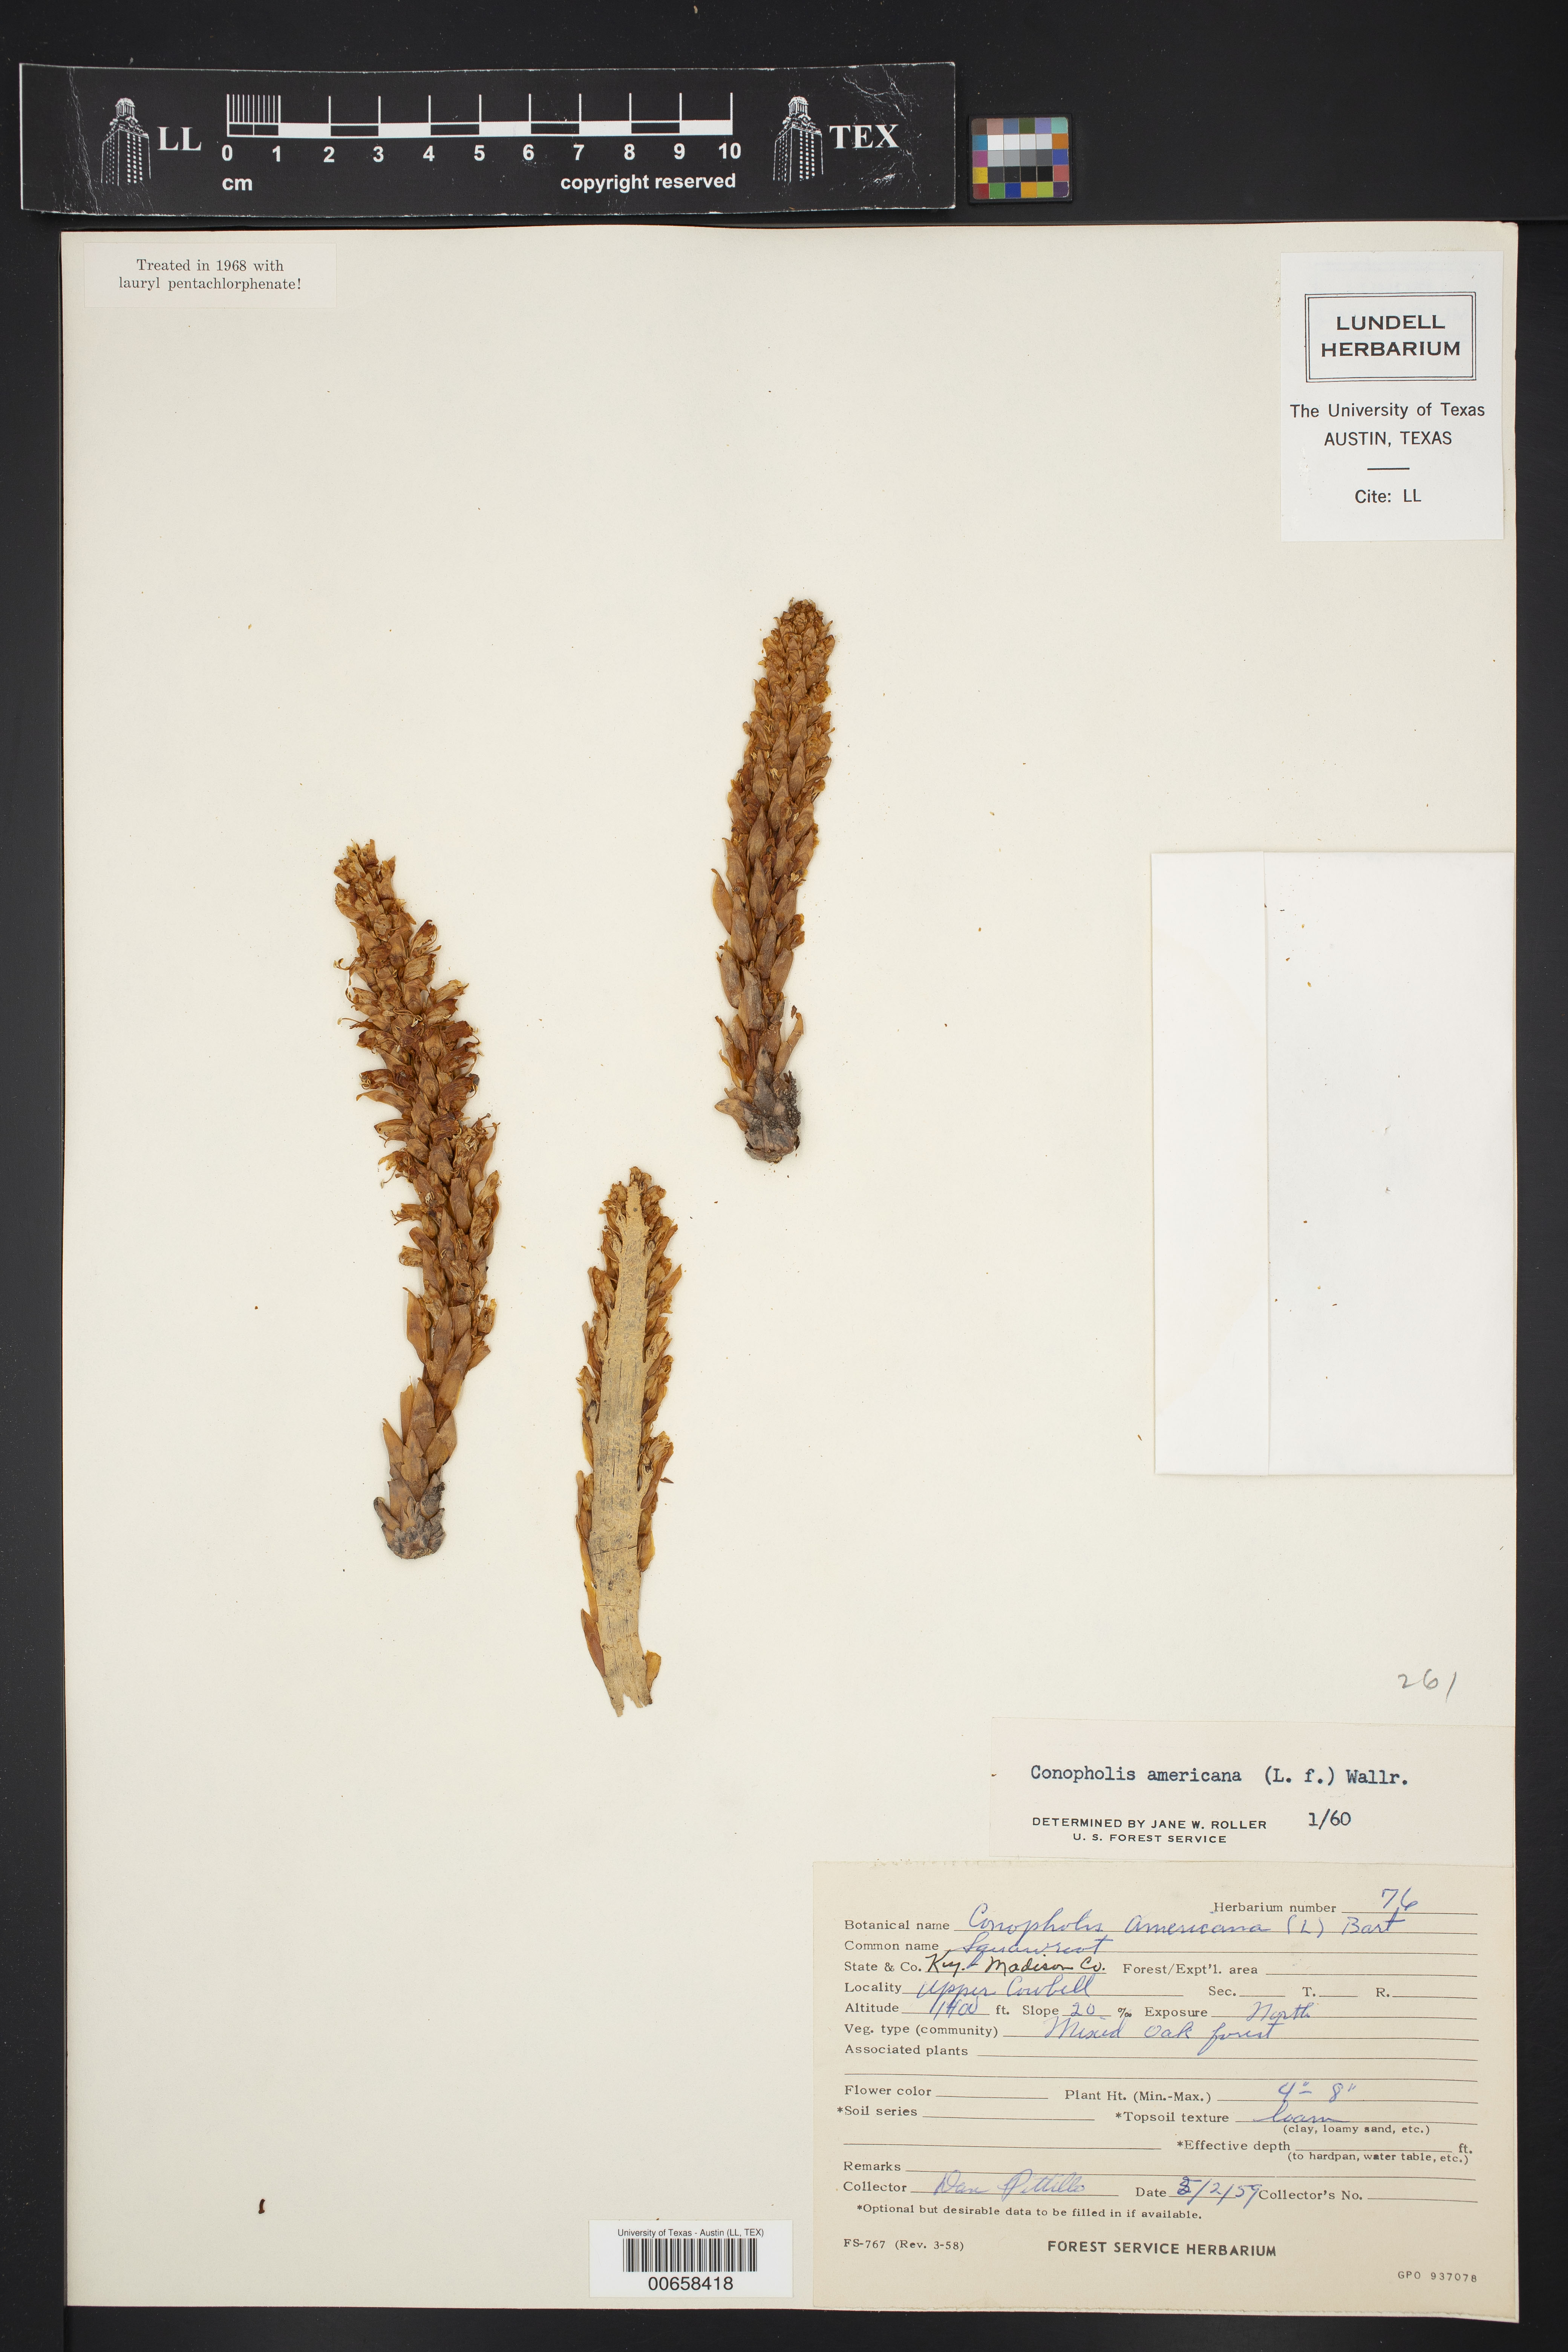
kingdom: Plantae
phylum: Tracheophyta
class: Magnoliopsida
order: Lamiales
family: Orobanchaceae
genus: Conopholis
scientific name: Conopholis americana
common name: American cancer-root
